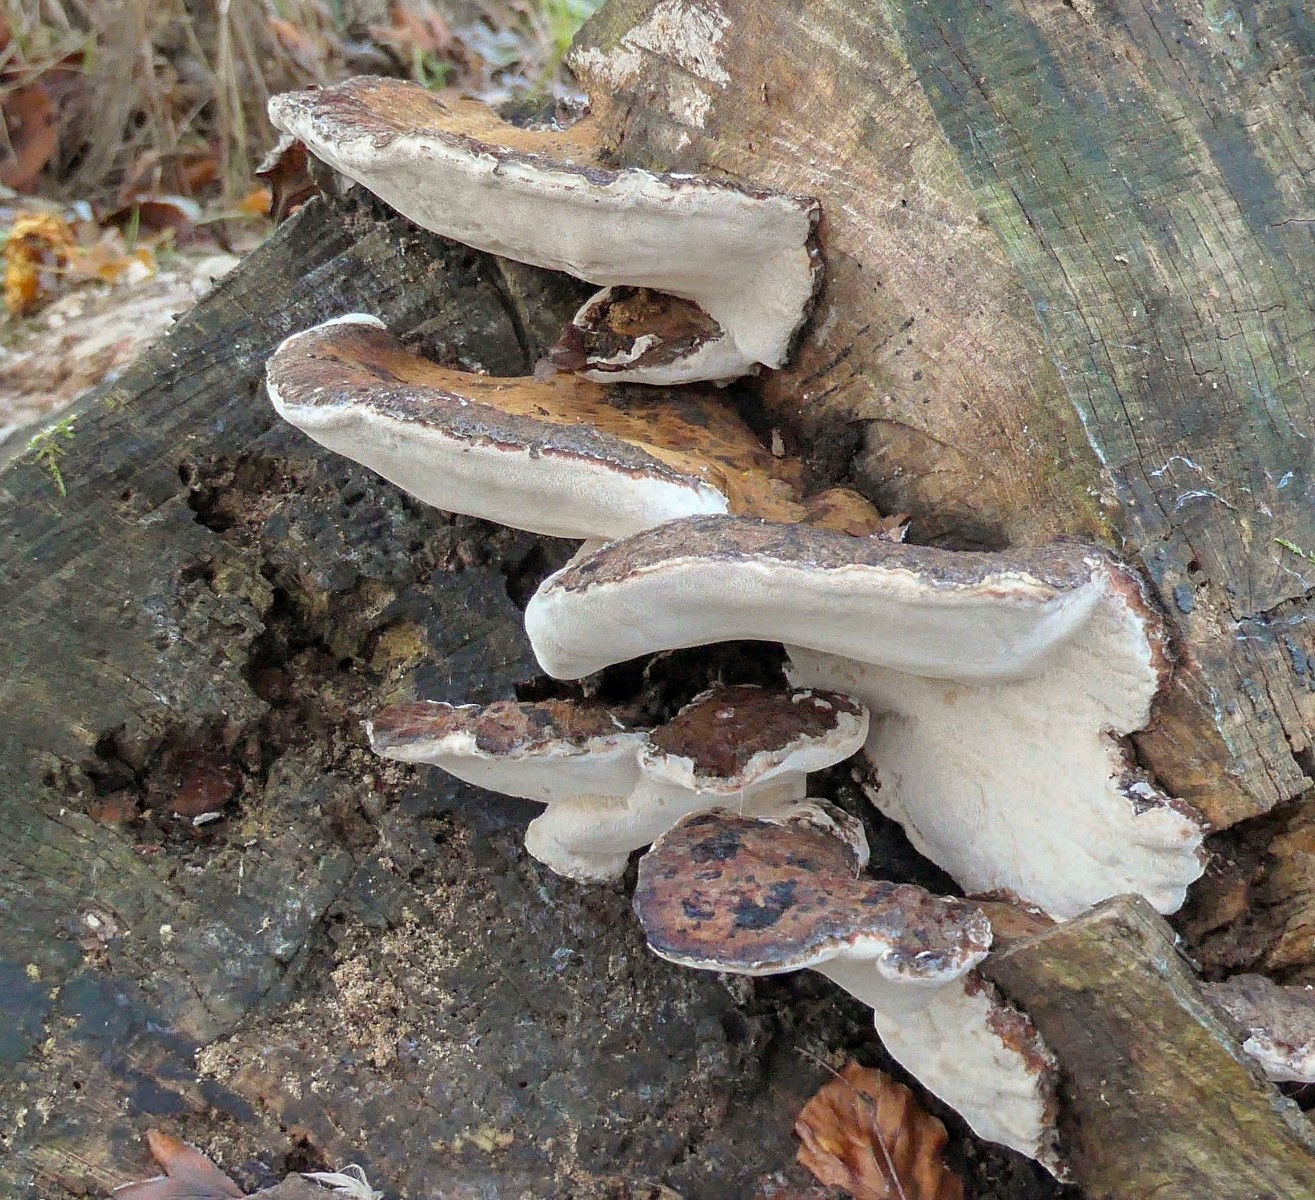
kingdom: Fungi
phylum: Basidiomycota
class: Agaricomycetes
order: Polyporales
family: Ischnodermataceae
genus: Ischnoderma
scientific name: Ischnoderma resinosum
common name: løv-tjæreporesvamp
